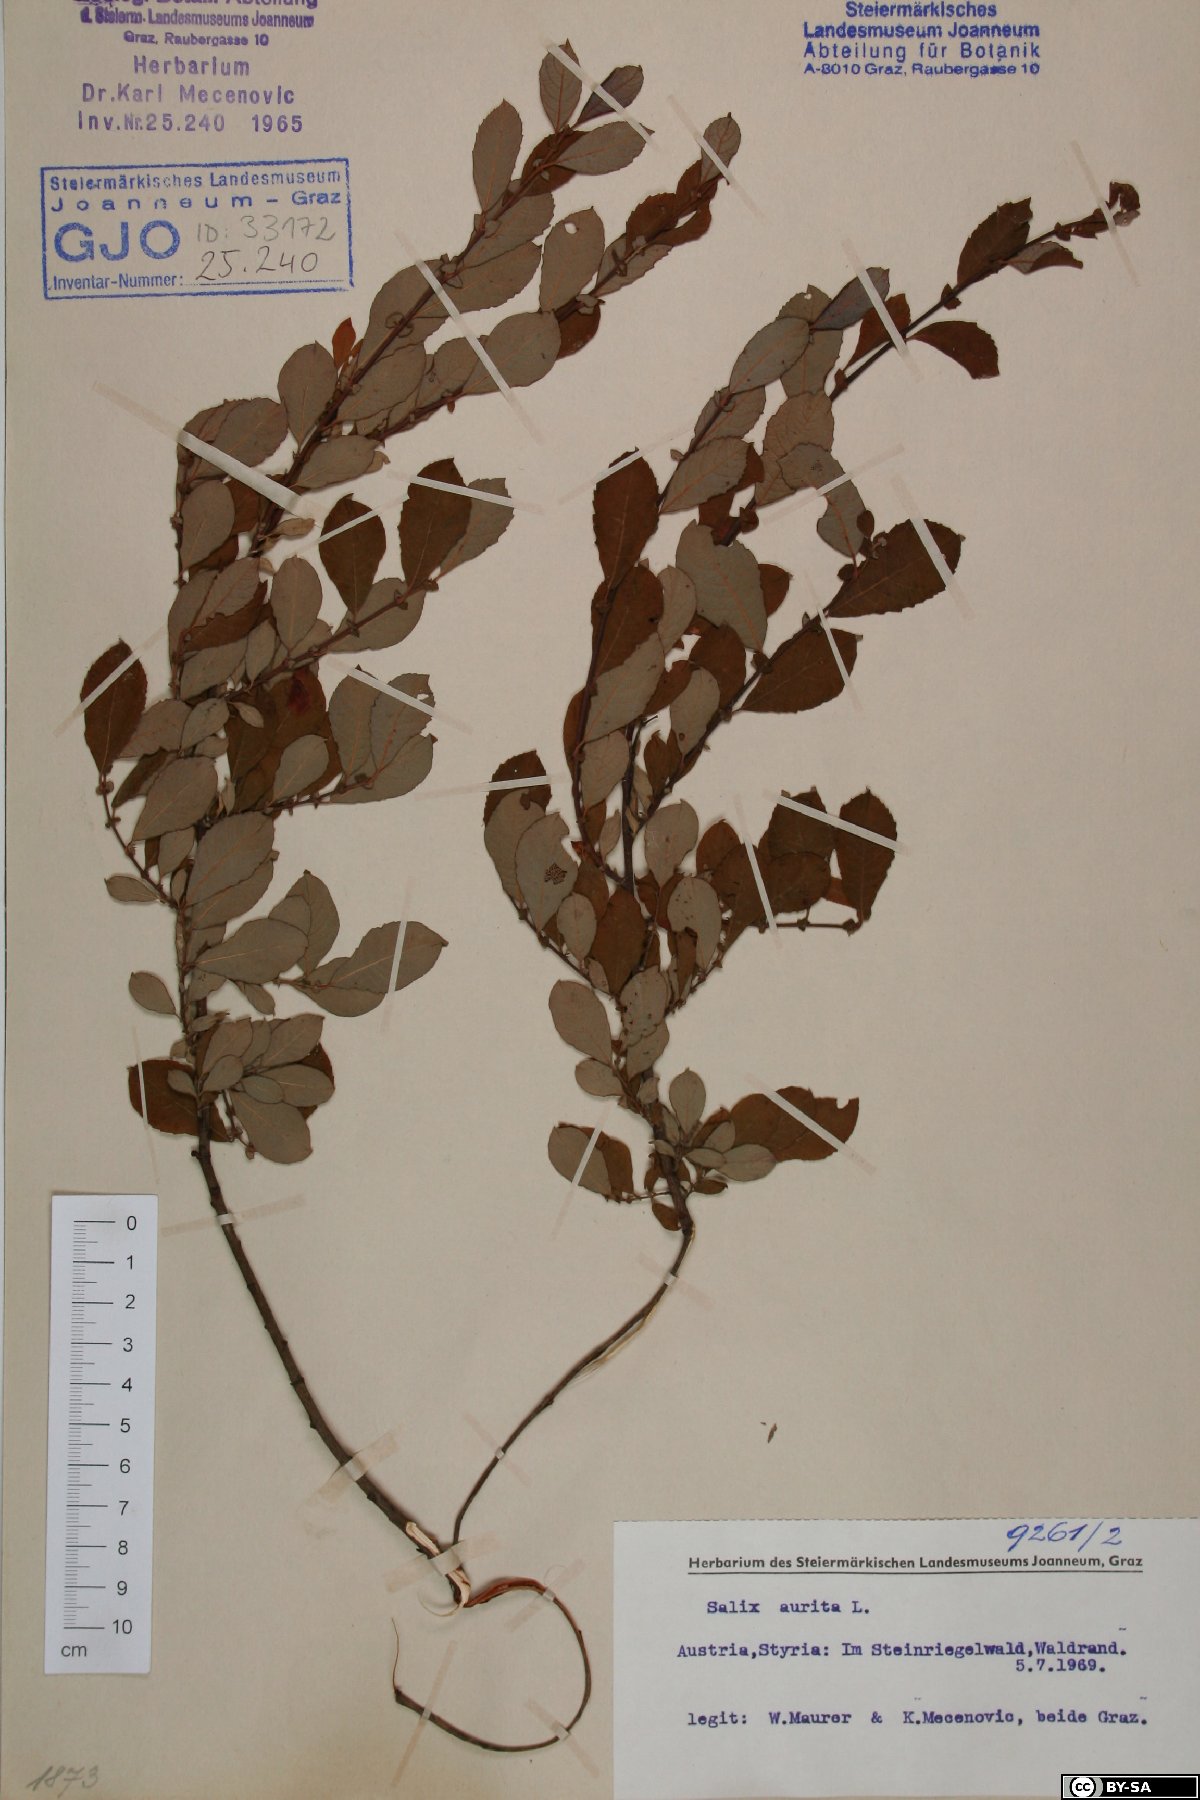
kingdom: Plantae
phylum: Tracheophyta
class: Magnoliopsida
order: Malpighiales
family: Salicaceae
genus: Salix
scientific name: Salix aurita
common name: Eared willow
